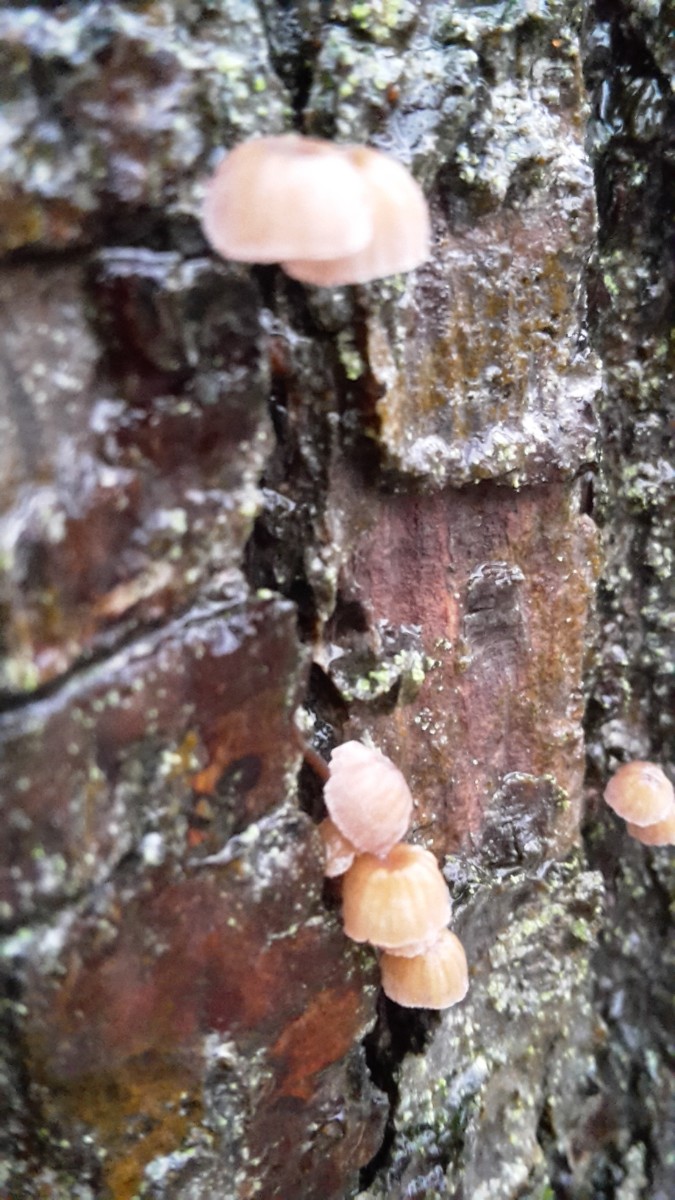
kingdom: Fungi
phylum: Basidiomycota
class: Agaricomycetes
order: Agaricales
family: Mycenaceae
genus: Mycena
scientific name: Mycena meliigena
